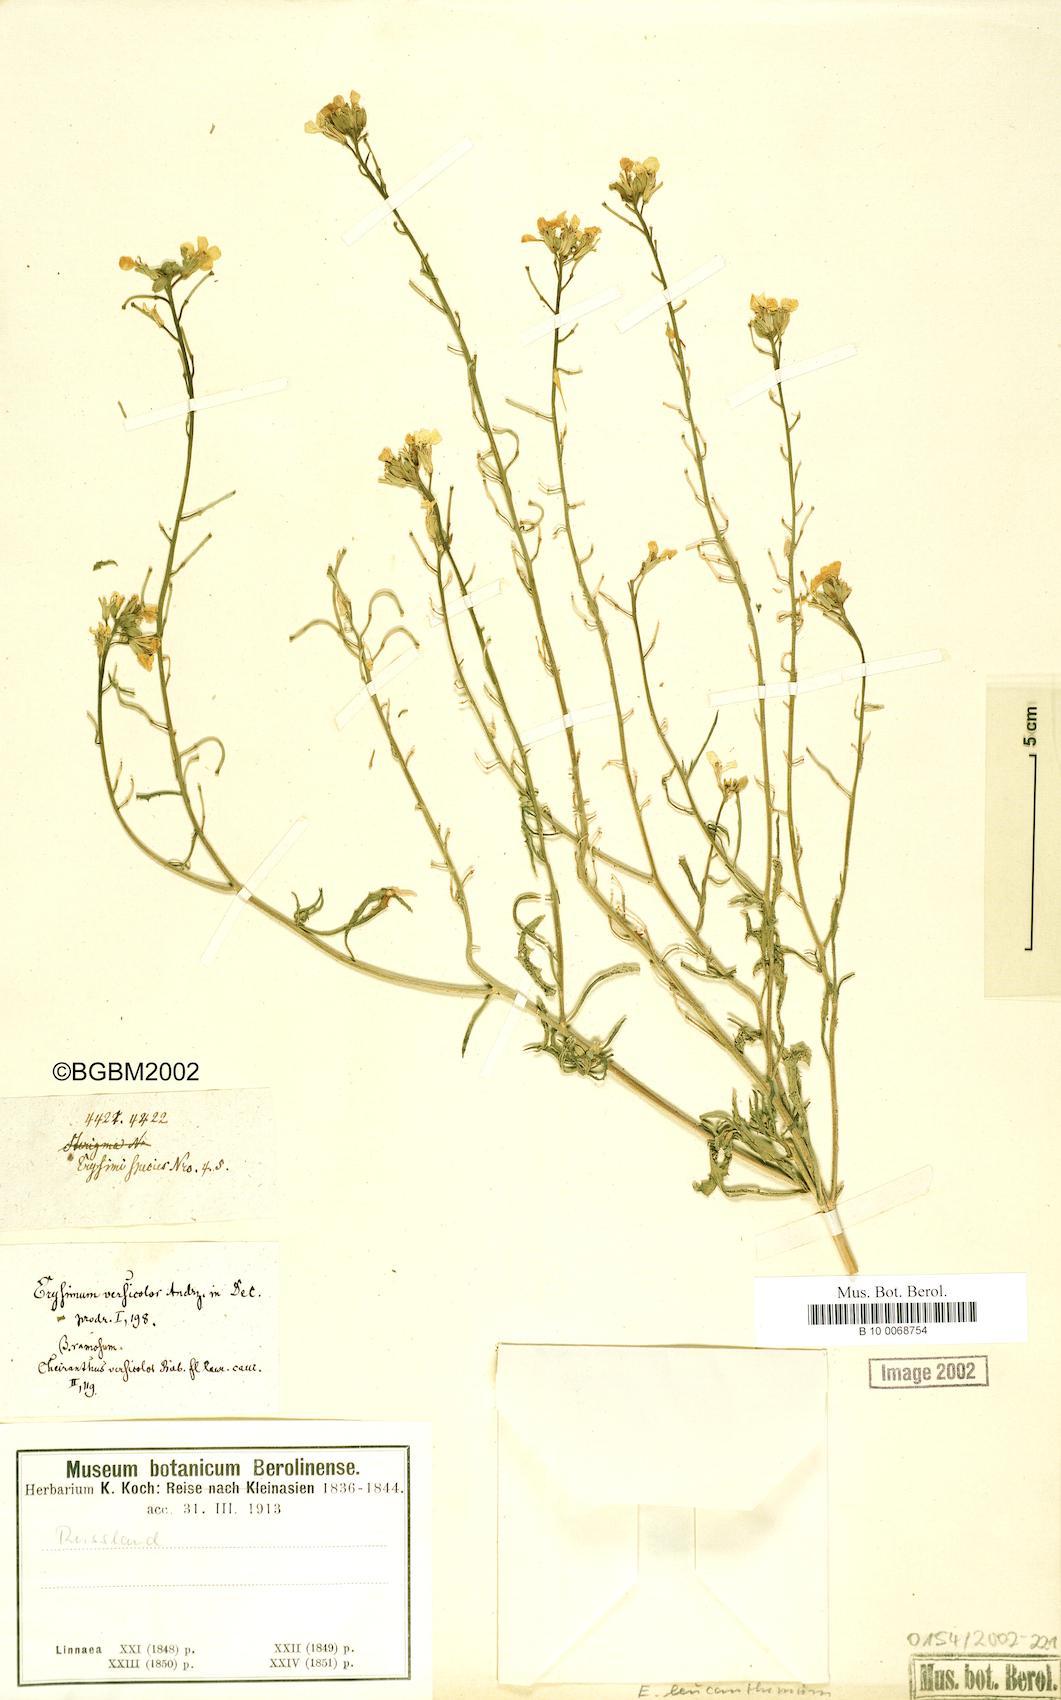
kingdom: Plantae
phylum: Tracheophyta
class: Magnoliopsida
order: Brassicales
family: Brassicaceae
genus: Erysimum
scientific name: Erysimum leucanthemum
